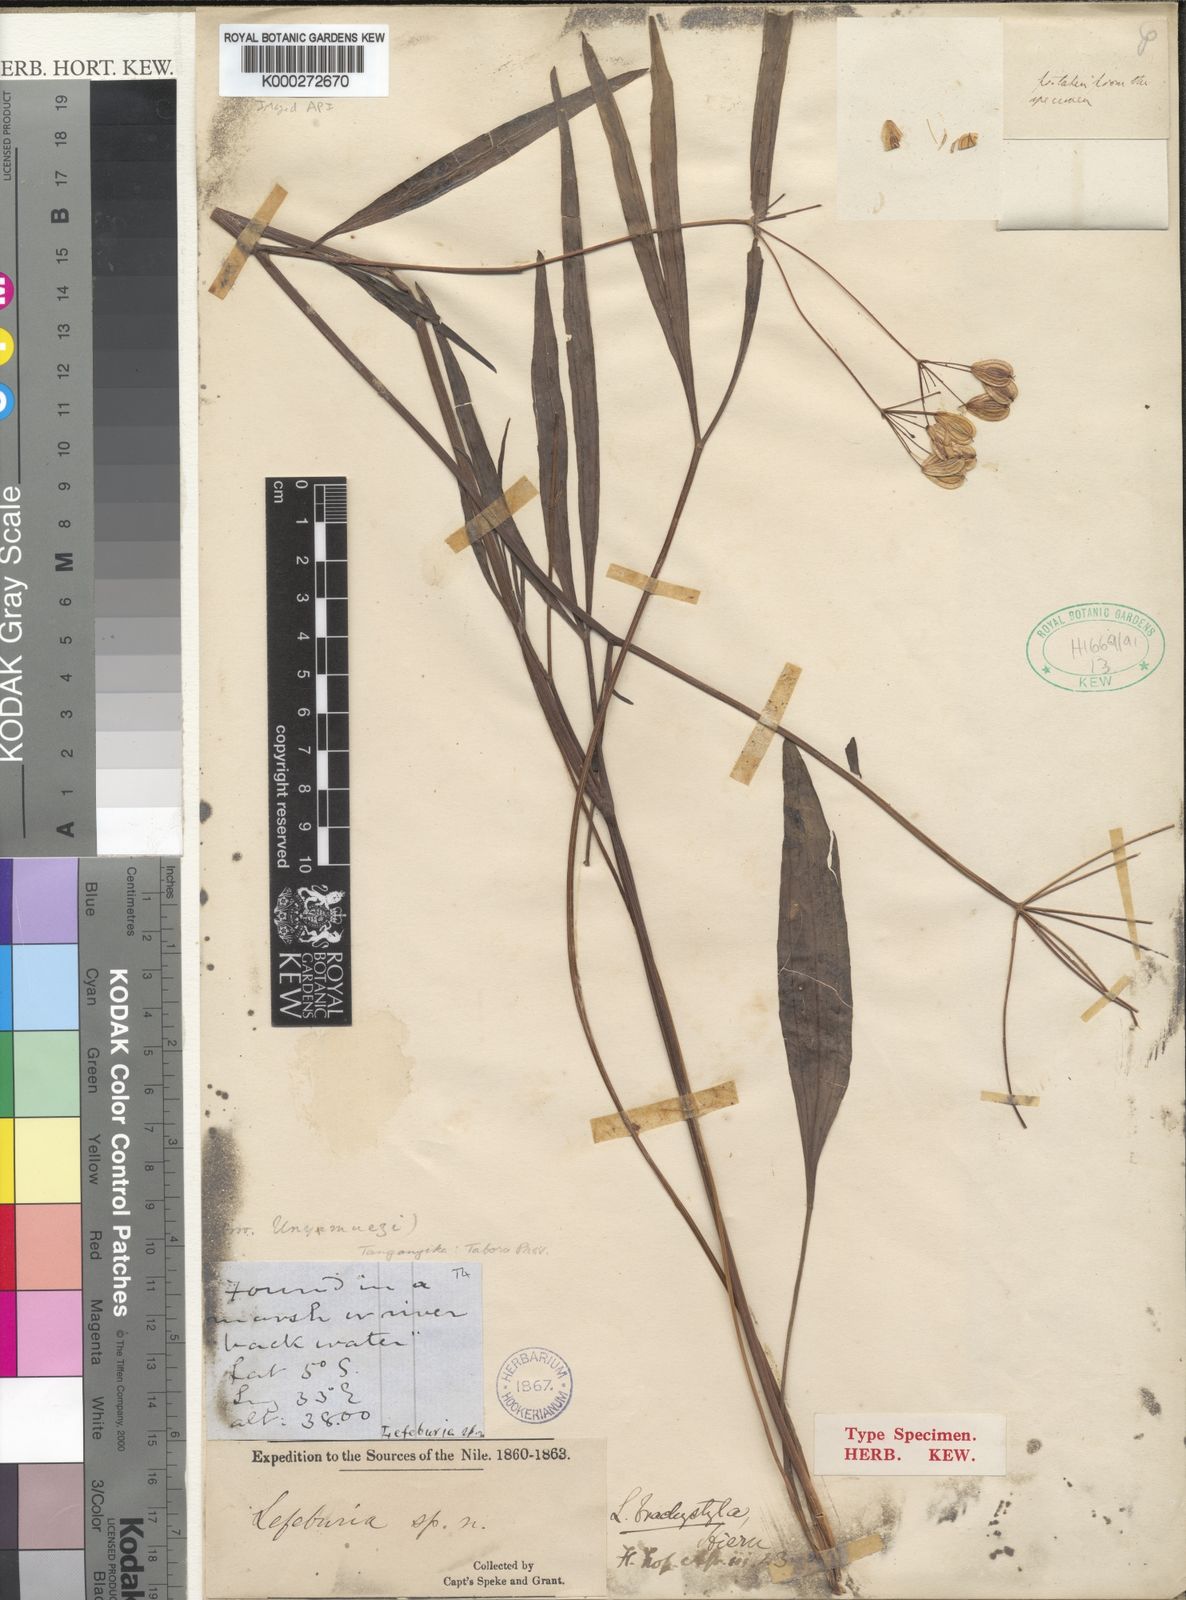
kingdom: Plantae
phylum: Tracheophyta
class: Magnoliopsida
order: Apiales
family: Apiaceae
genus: Lefebvrea
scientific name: Lefebvrea brachystyla
